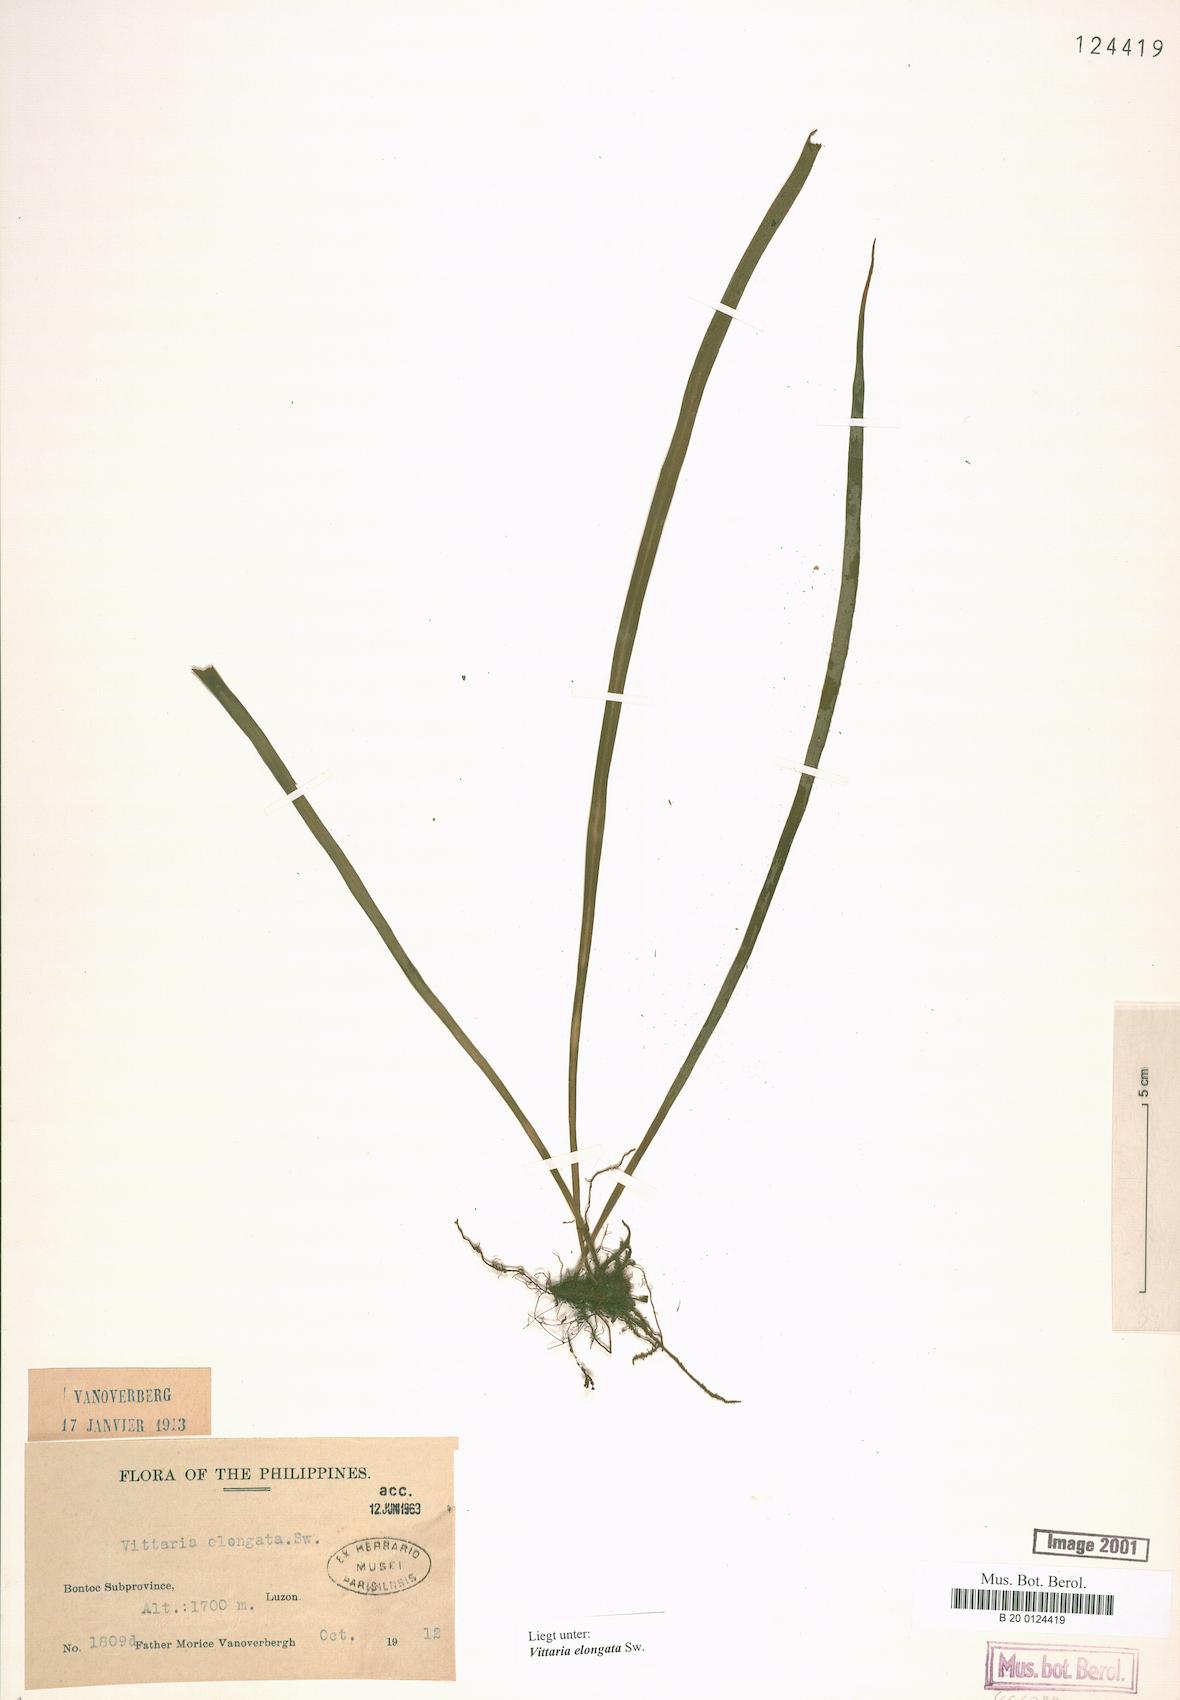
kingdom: Plantae
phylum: Tracheophyta
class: Polypodiopsida
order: Polypodiales
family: Pteridaceae
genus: Haplopteris
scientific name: Haplopteris elongata
